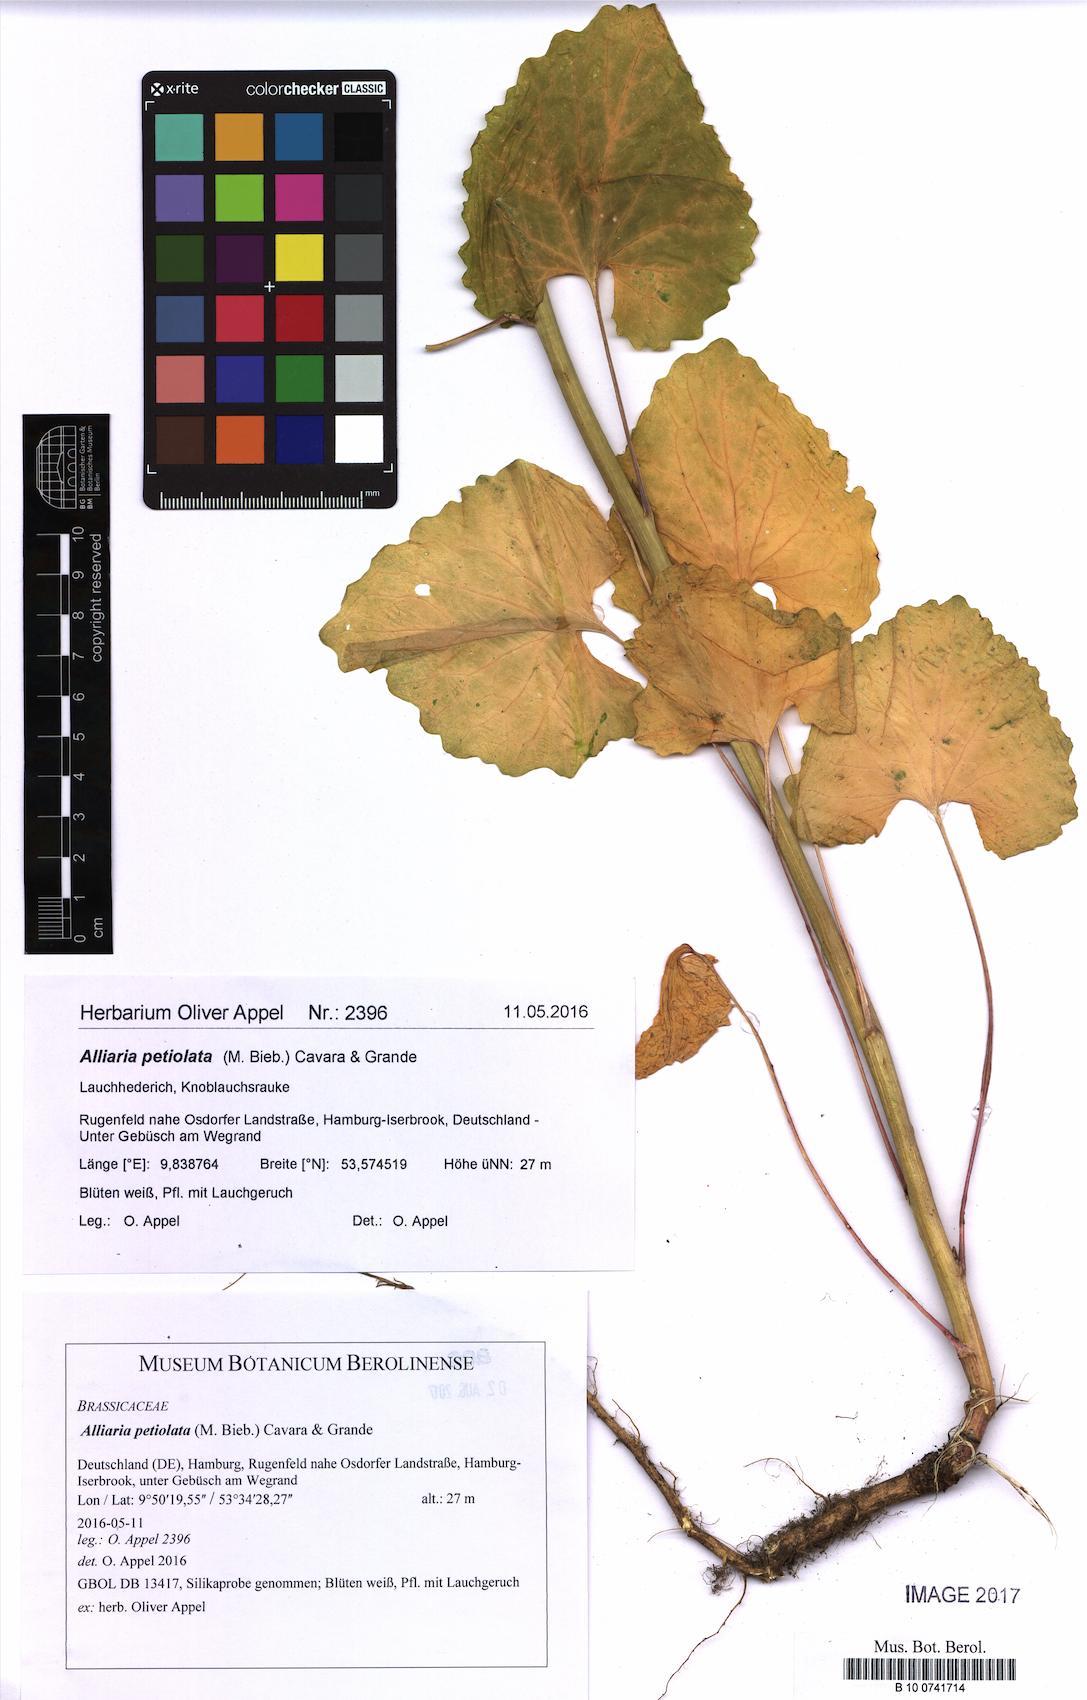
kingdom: Plantae
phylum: Tracheophyta
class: Magnoliopsida
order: Brassicales
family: Brassicaceae
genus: Alliaria
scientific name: Alliaria petiolata
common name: Garlic mustard
